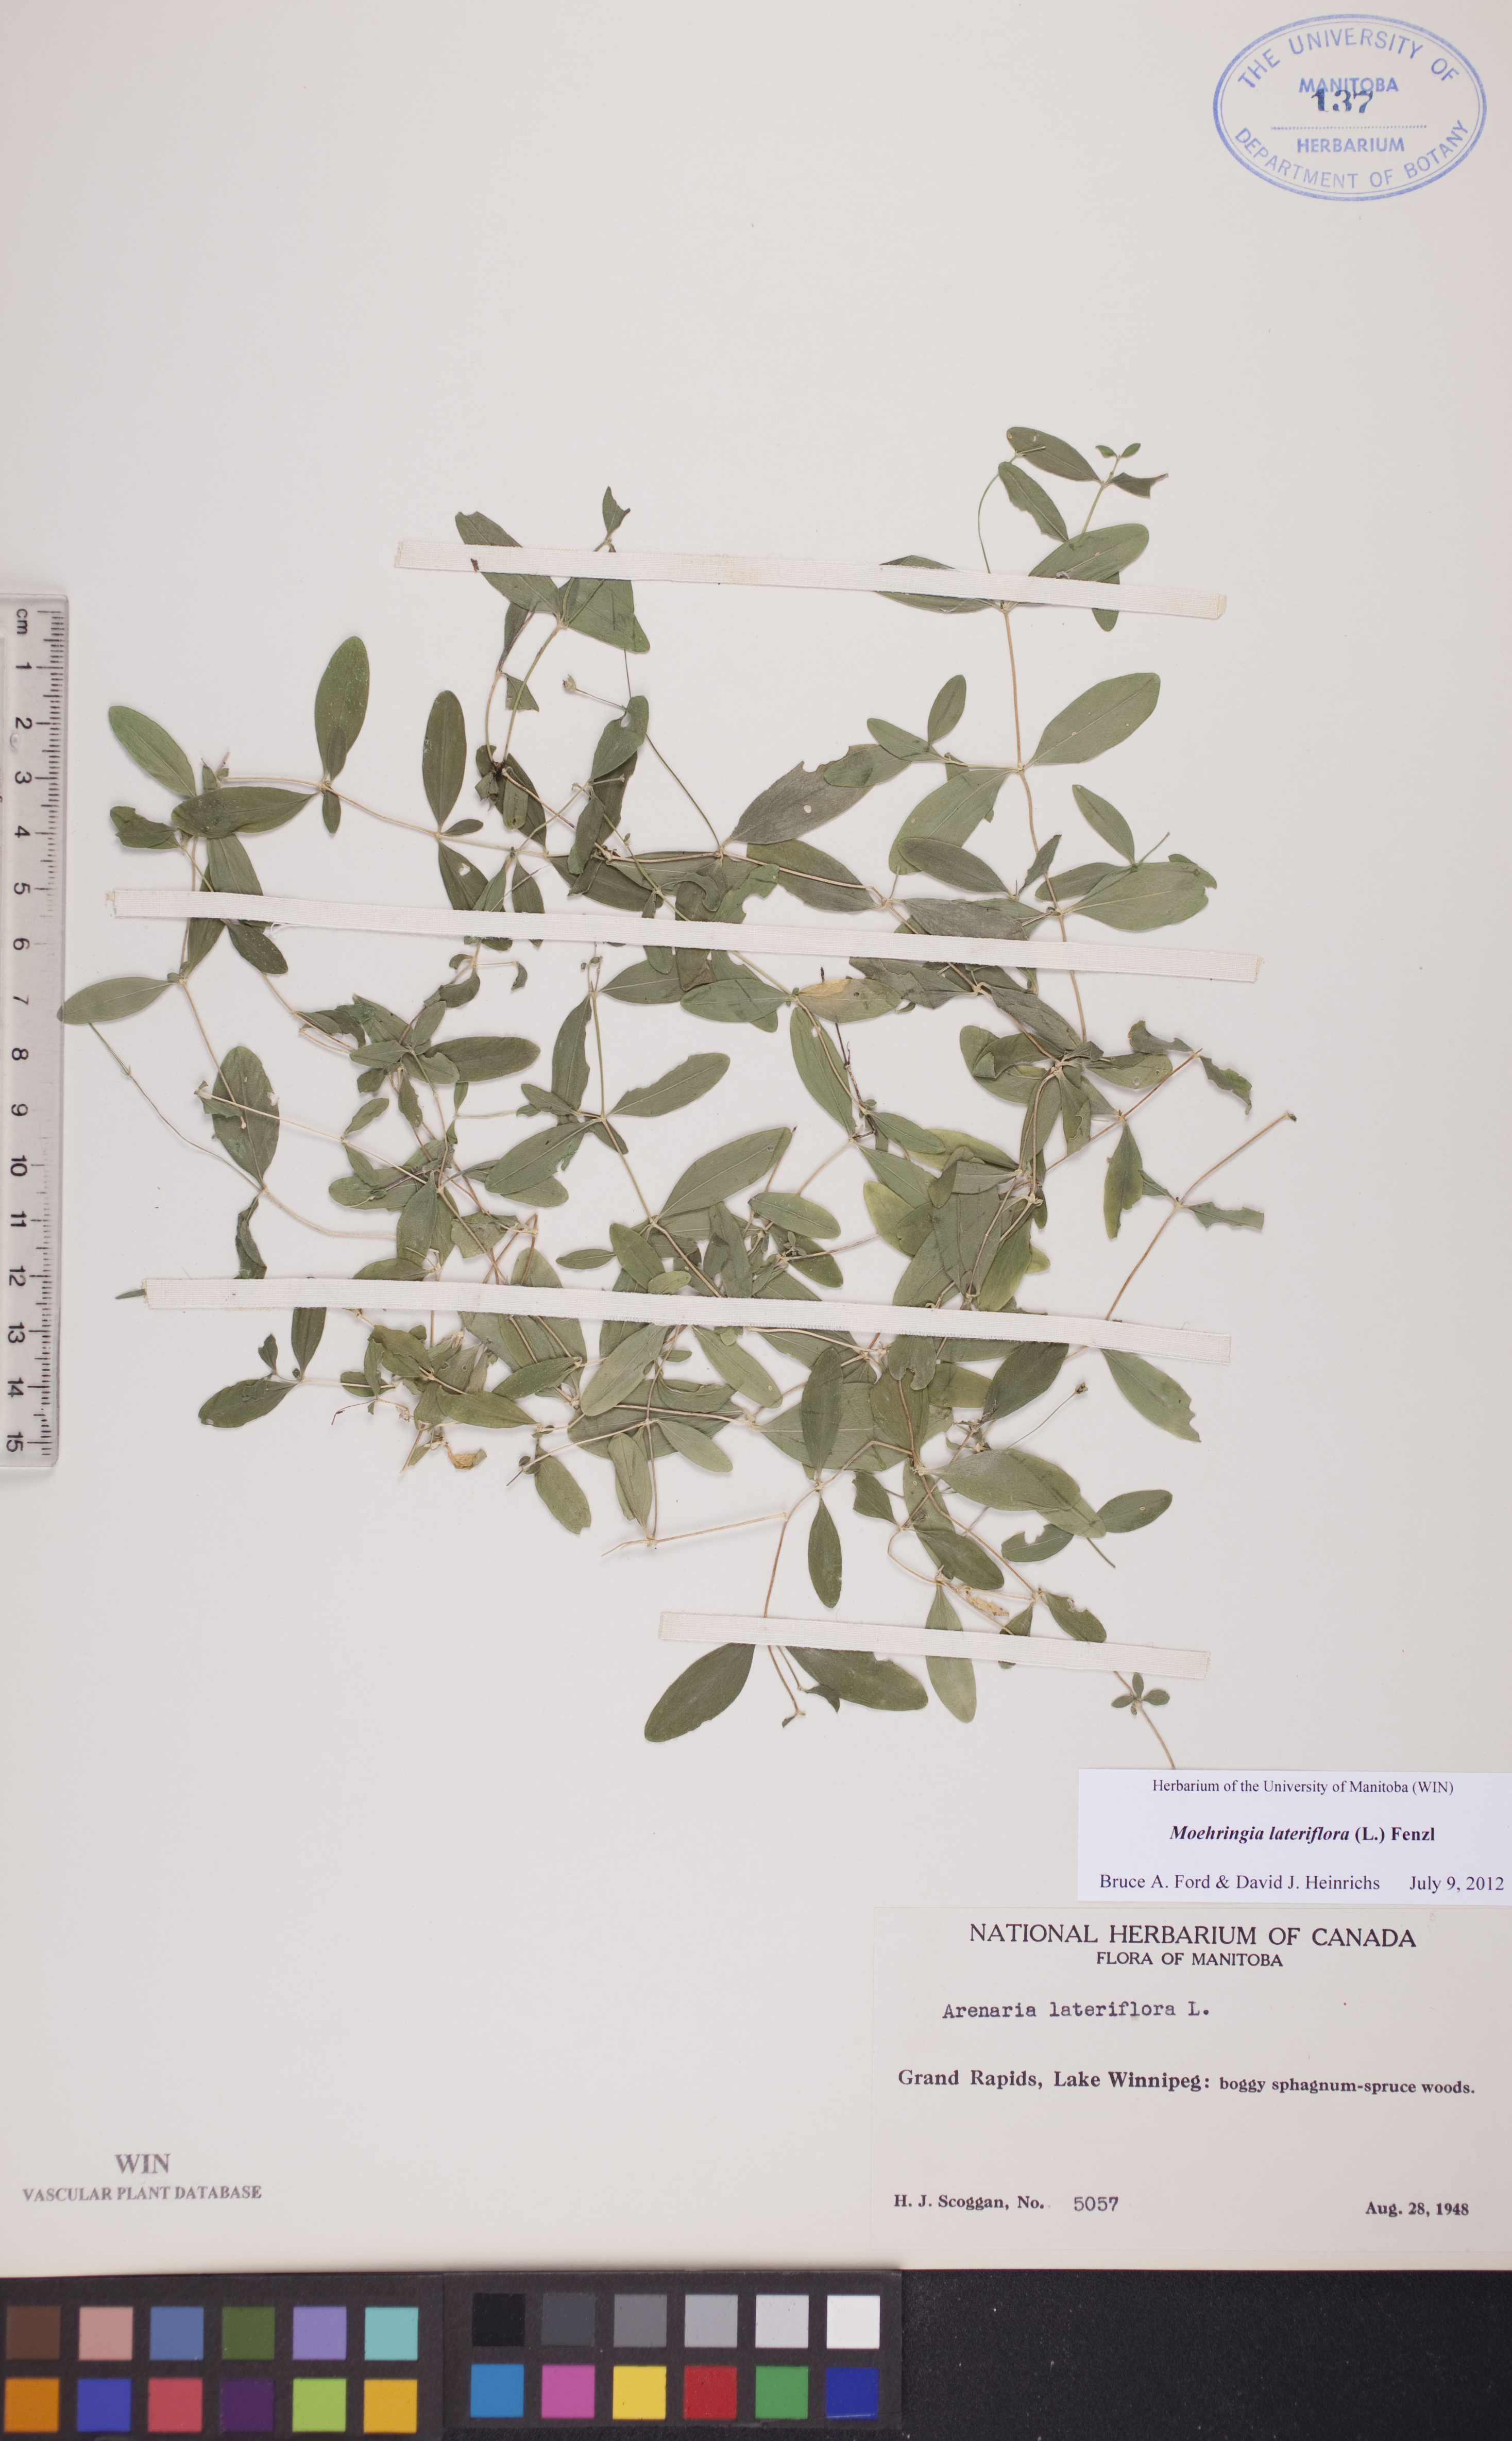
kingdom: Plantae
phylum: Tracheophyta
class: Magnoliopsida
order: Caryophyllales
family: Caryophyllaceae
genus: Moehringia
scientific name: Moehringia lateriflora
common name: Blunt-leaved sandwort
